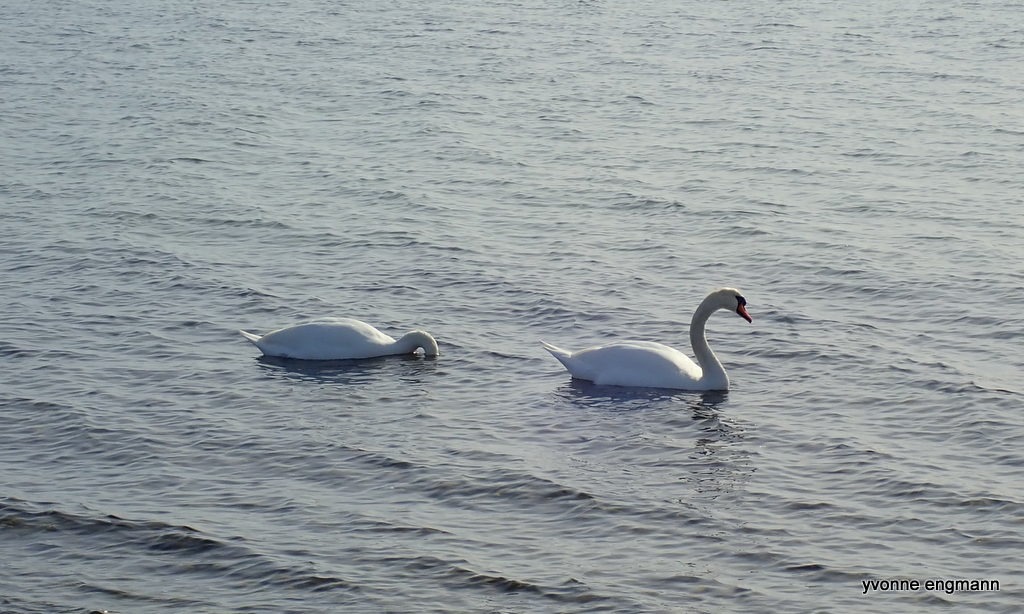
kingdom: Animalia
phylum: Chordata
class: Aves
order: Anseriformes
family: Anatidae
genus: Cygnus
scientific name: Cygnus olor
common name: Knopsvane
